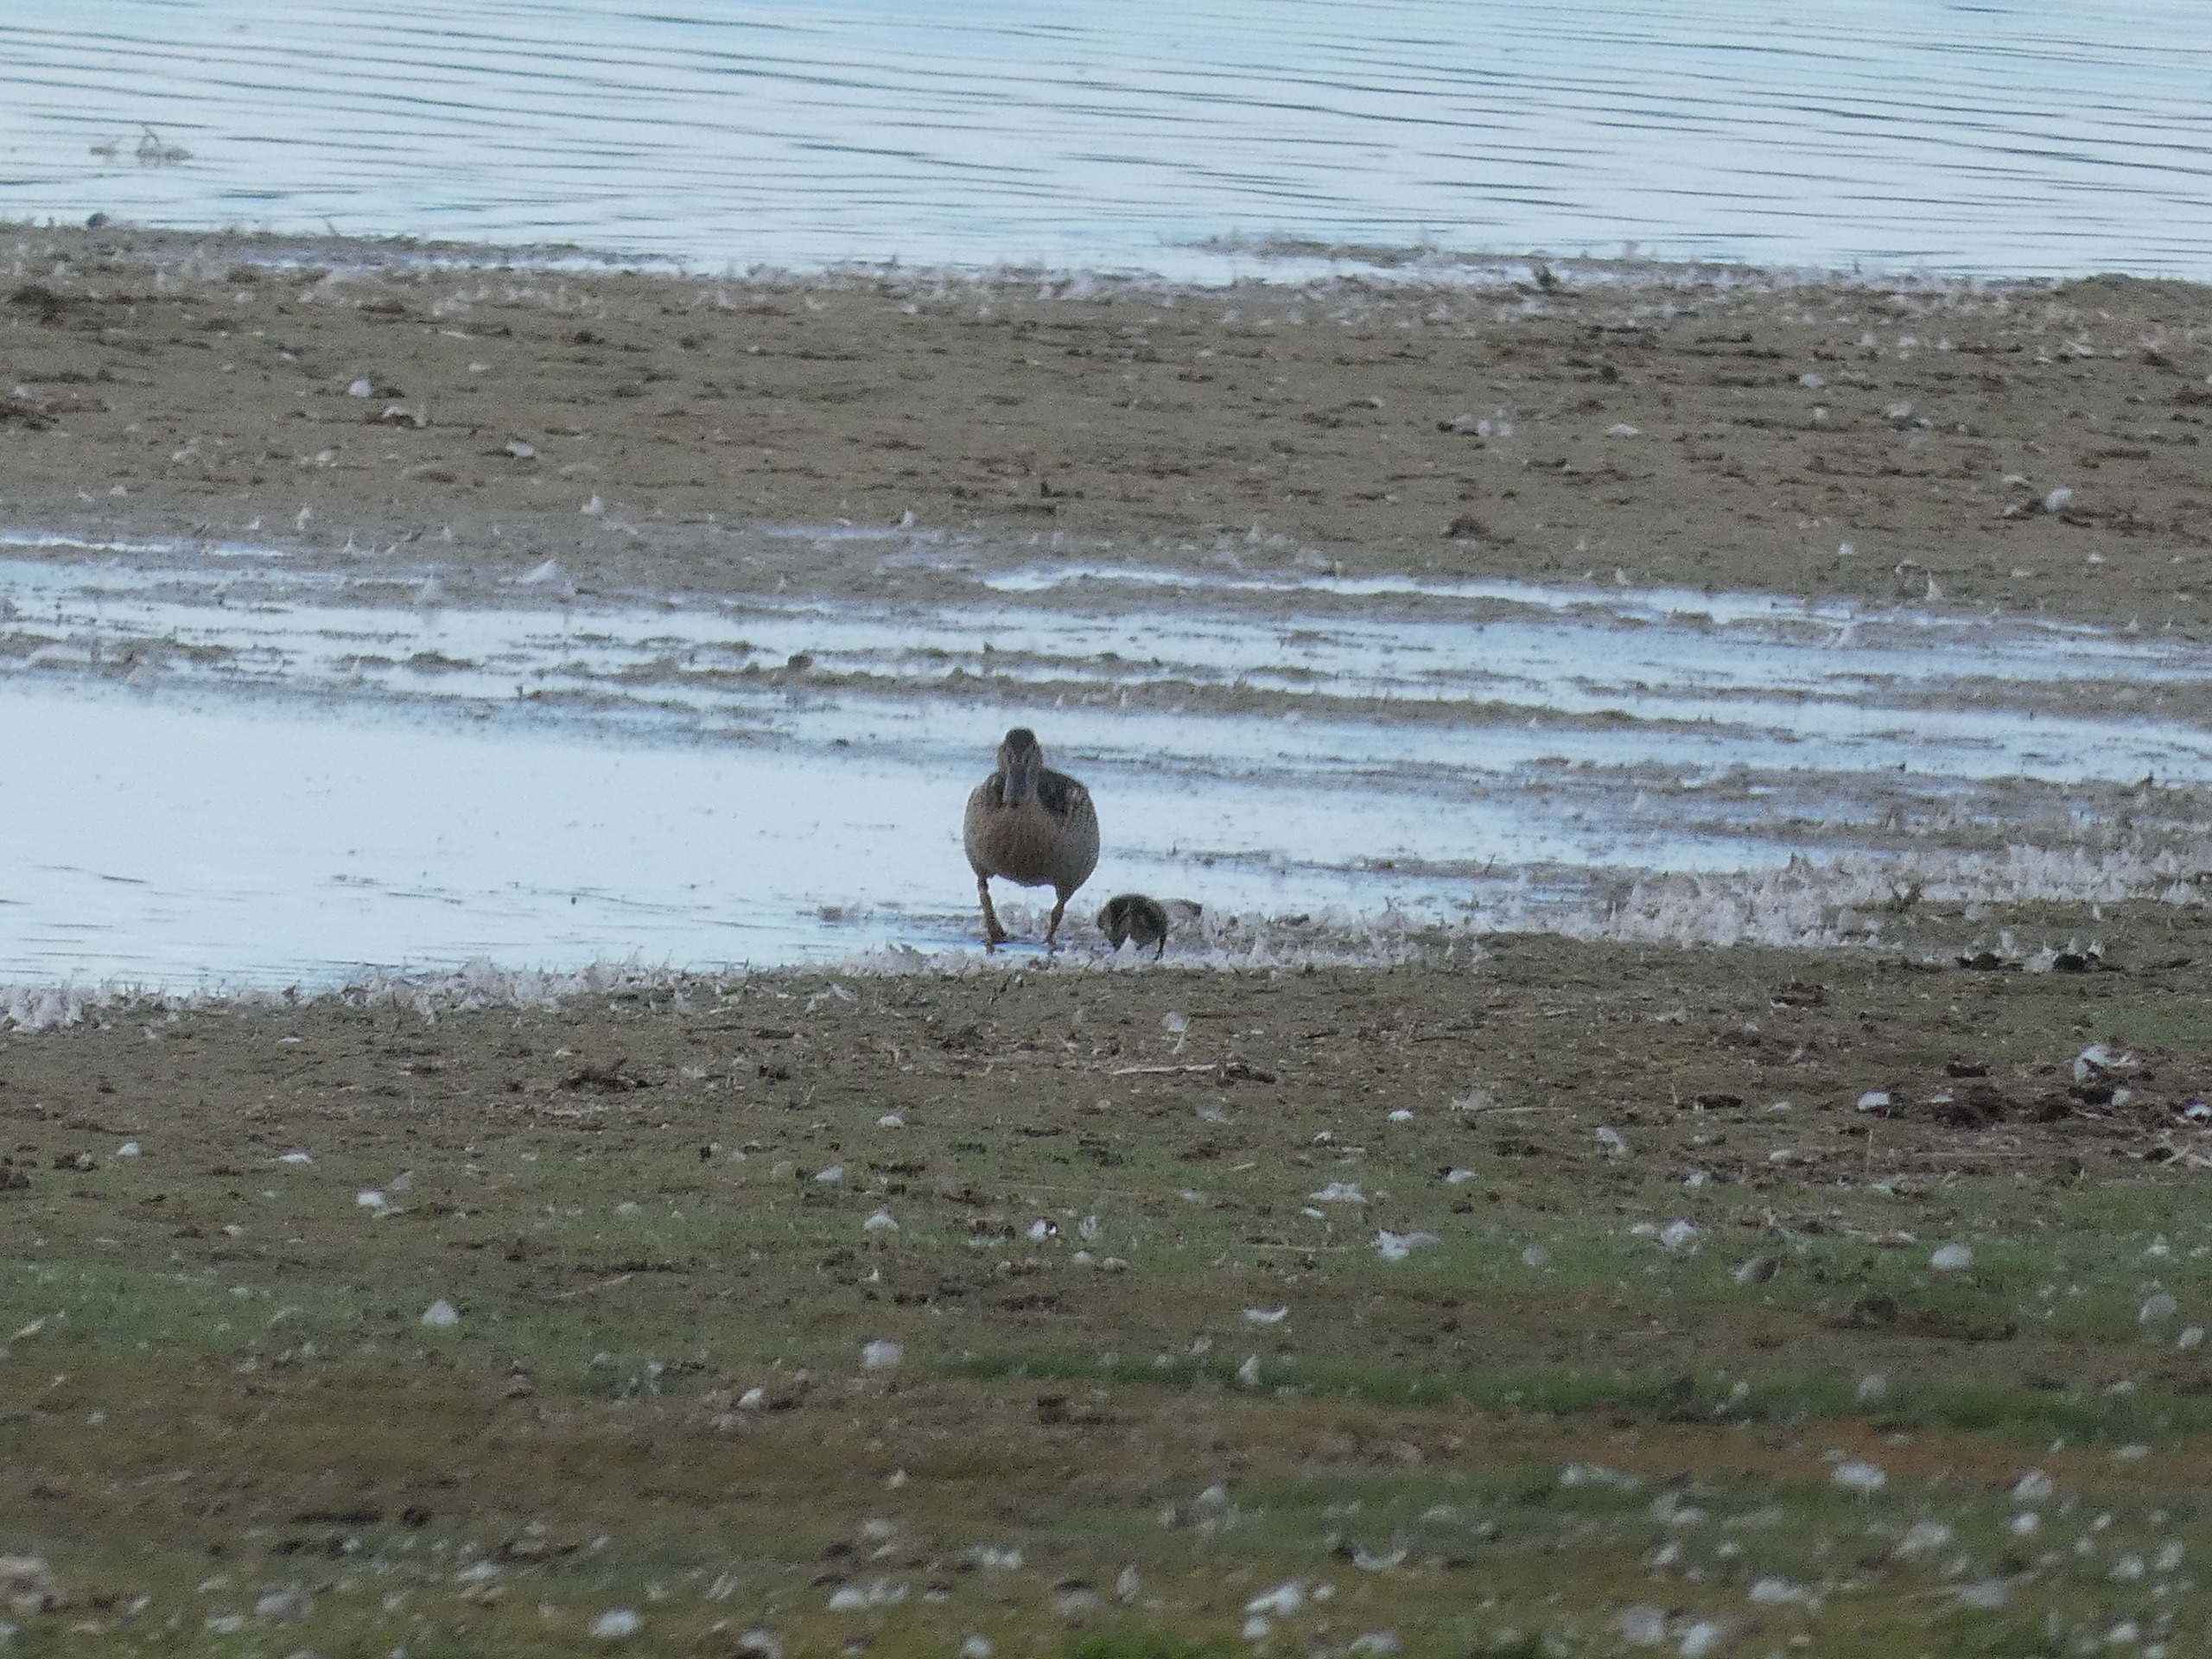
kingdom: Animalia
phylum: Chordata
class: Aves
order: Anseriformes
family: Anatidae
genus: Anas
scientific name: Anas platyrhynchos
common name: Gråand
